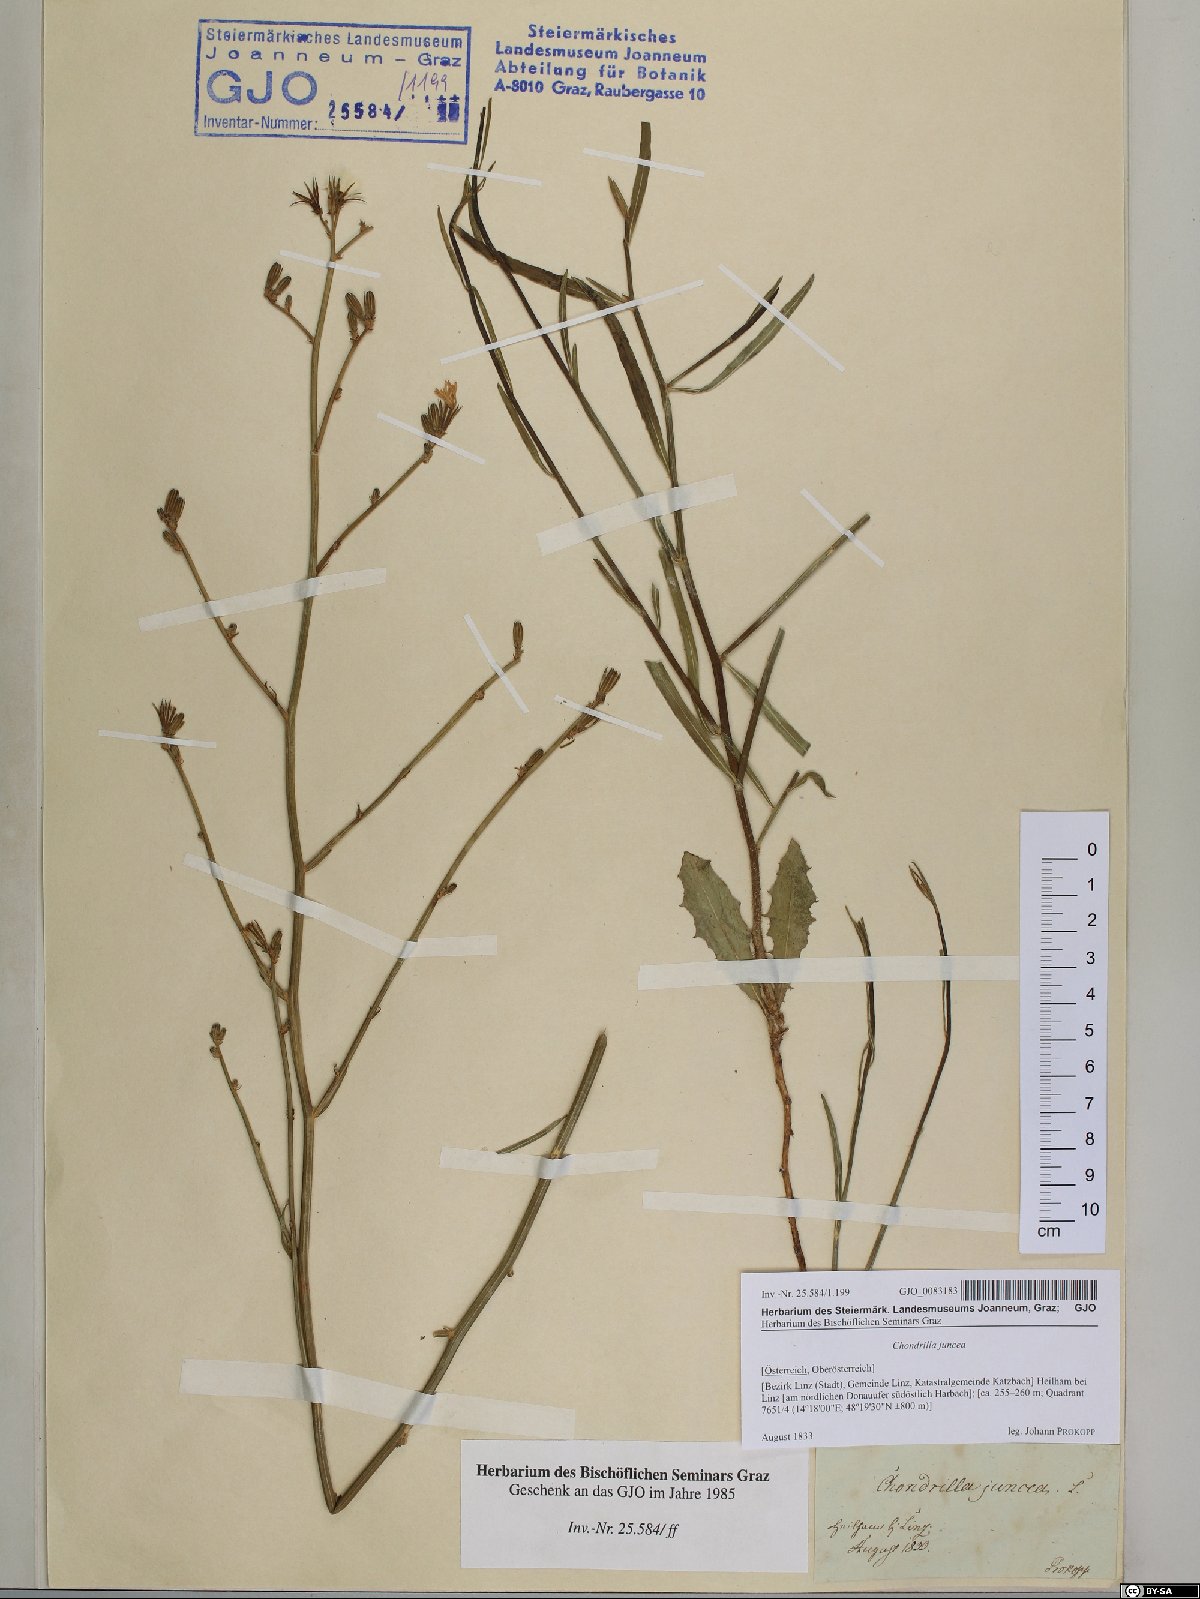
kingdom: Plantae
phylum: Tracheophyta
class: Magnoliopsida
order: Asterales
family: Asteraceae
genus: Chondrilla
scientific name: Chondrilla juncea
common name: Skeleton weed
